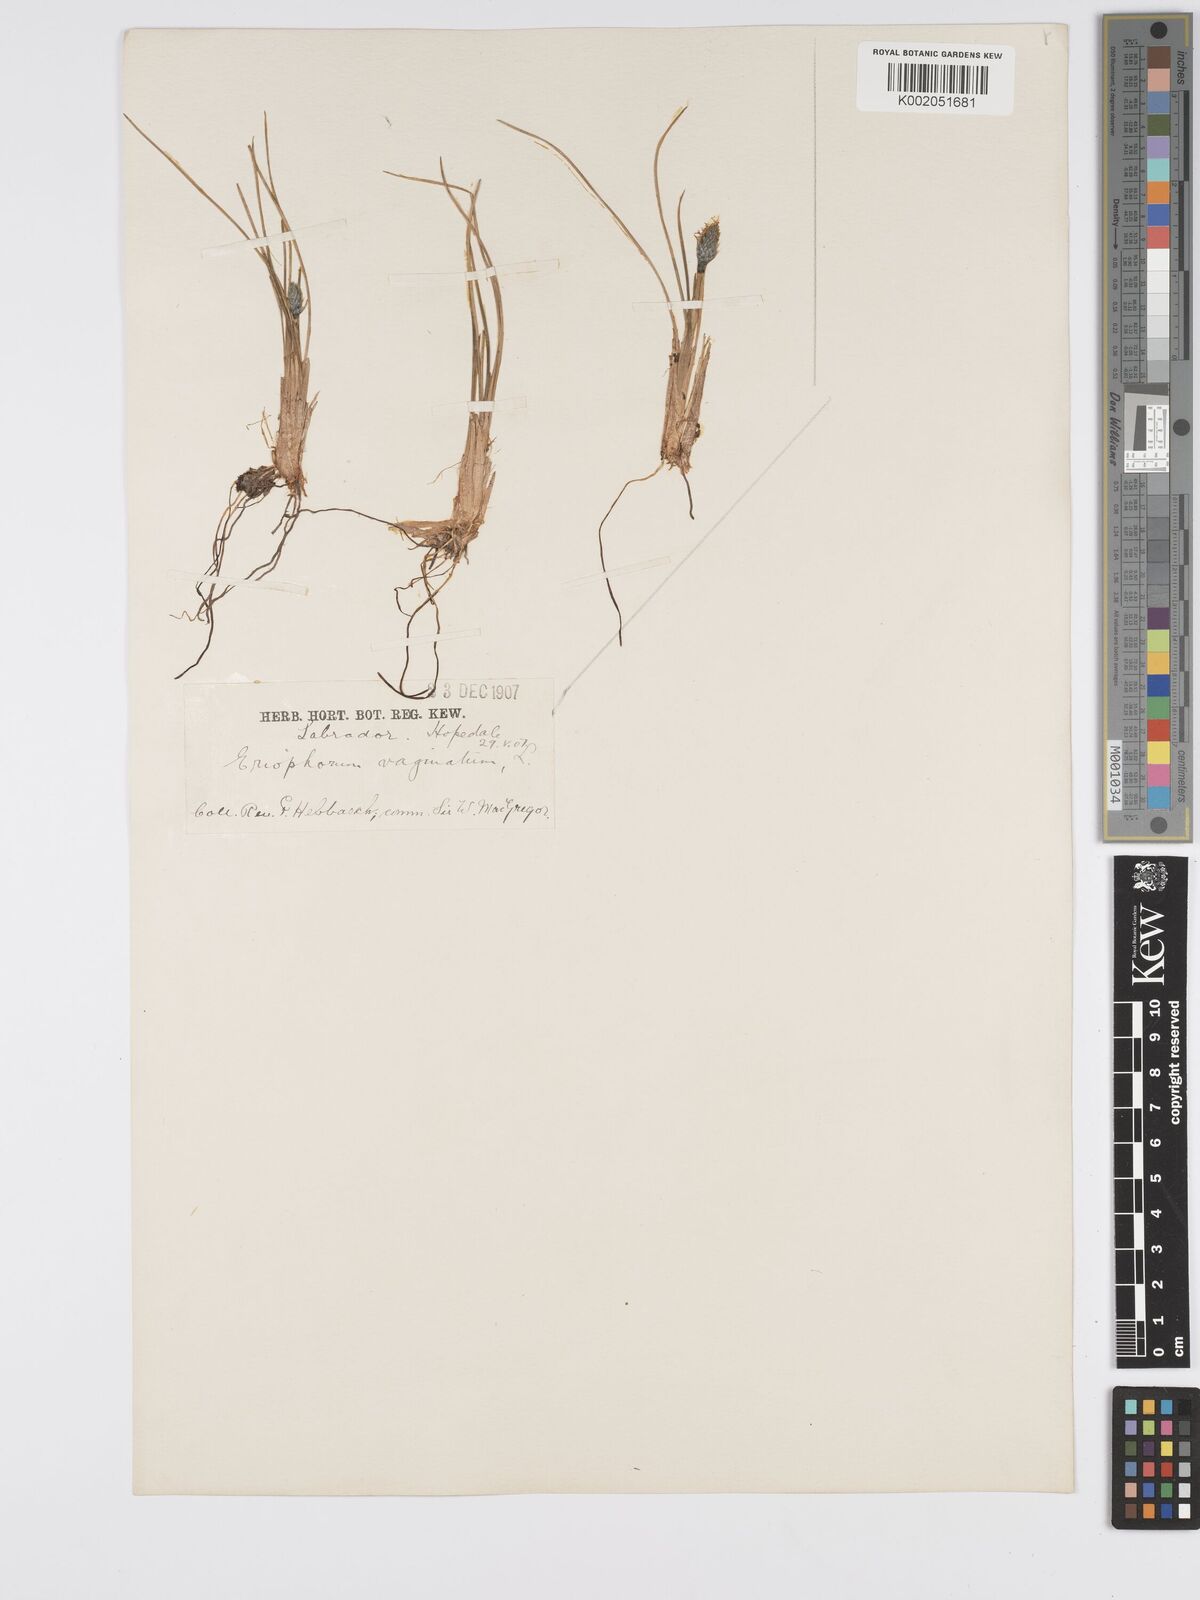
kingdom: Plantae
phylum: Tracheophyta
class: Liliopsida
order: Poales
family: Cyperaceae
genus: Eriophorum
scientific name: Eriophorum vaginatum
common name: Hare's-tail cottongrass
